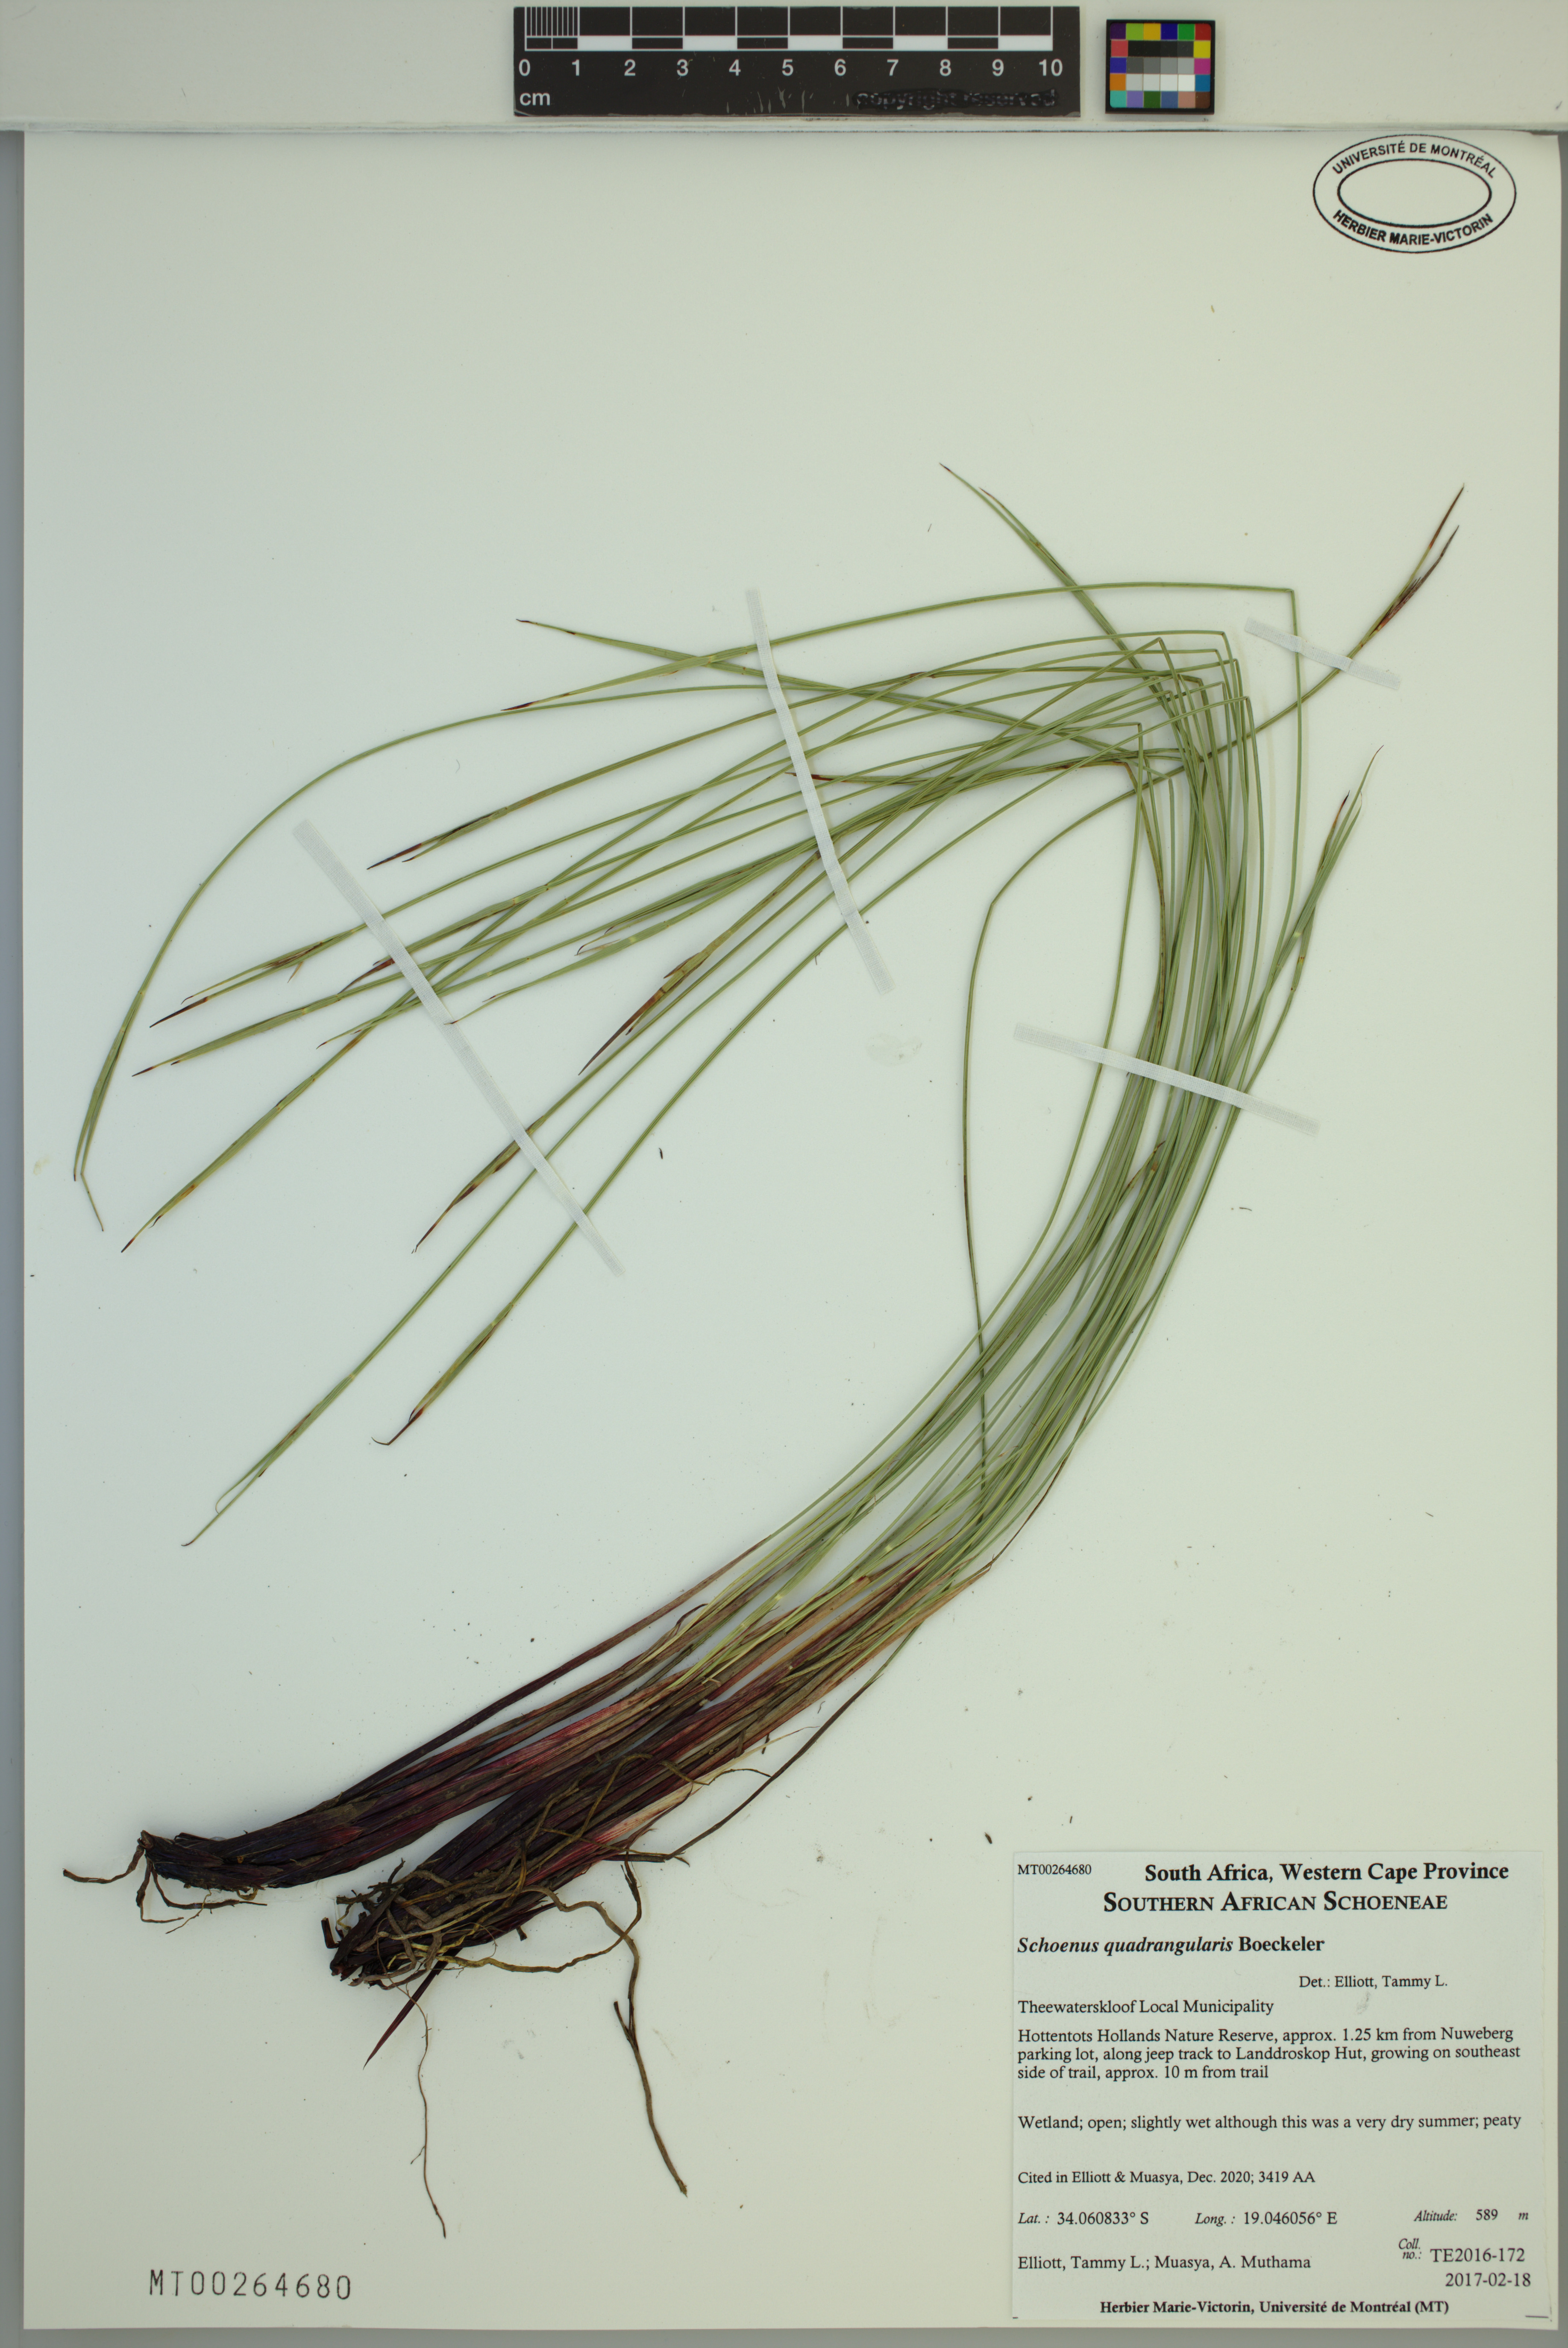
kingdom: Plantae
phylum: Tracheophyta
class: Liliopsida
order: Poales
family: Cyperaceae
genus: Schoenus
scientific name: Schoenus quadrangularis
